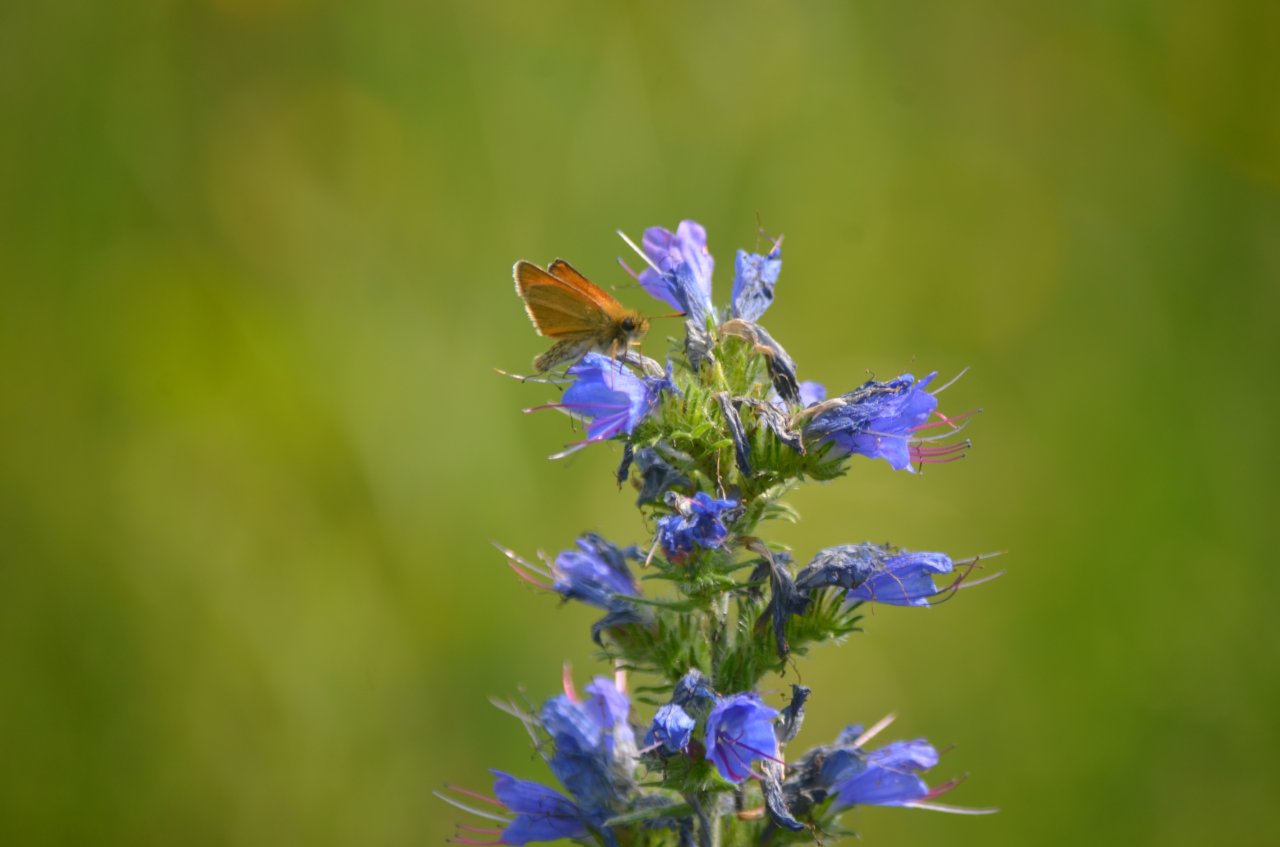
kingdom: Animalia
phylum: Arthropoda
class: Insecta
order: Lepidoptera
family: Hesperiidae
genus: Thymelicus
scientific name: Thymelicus lineola
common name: European Skipper
